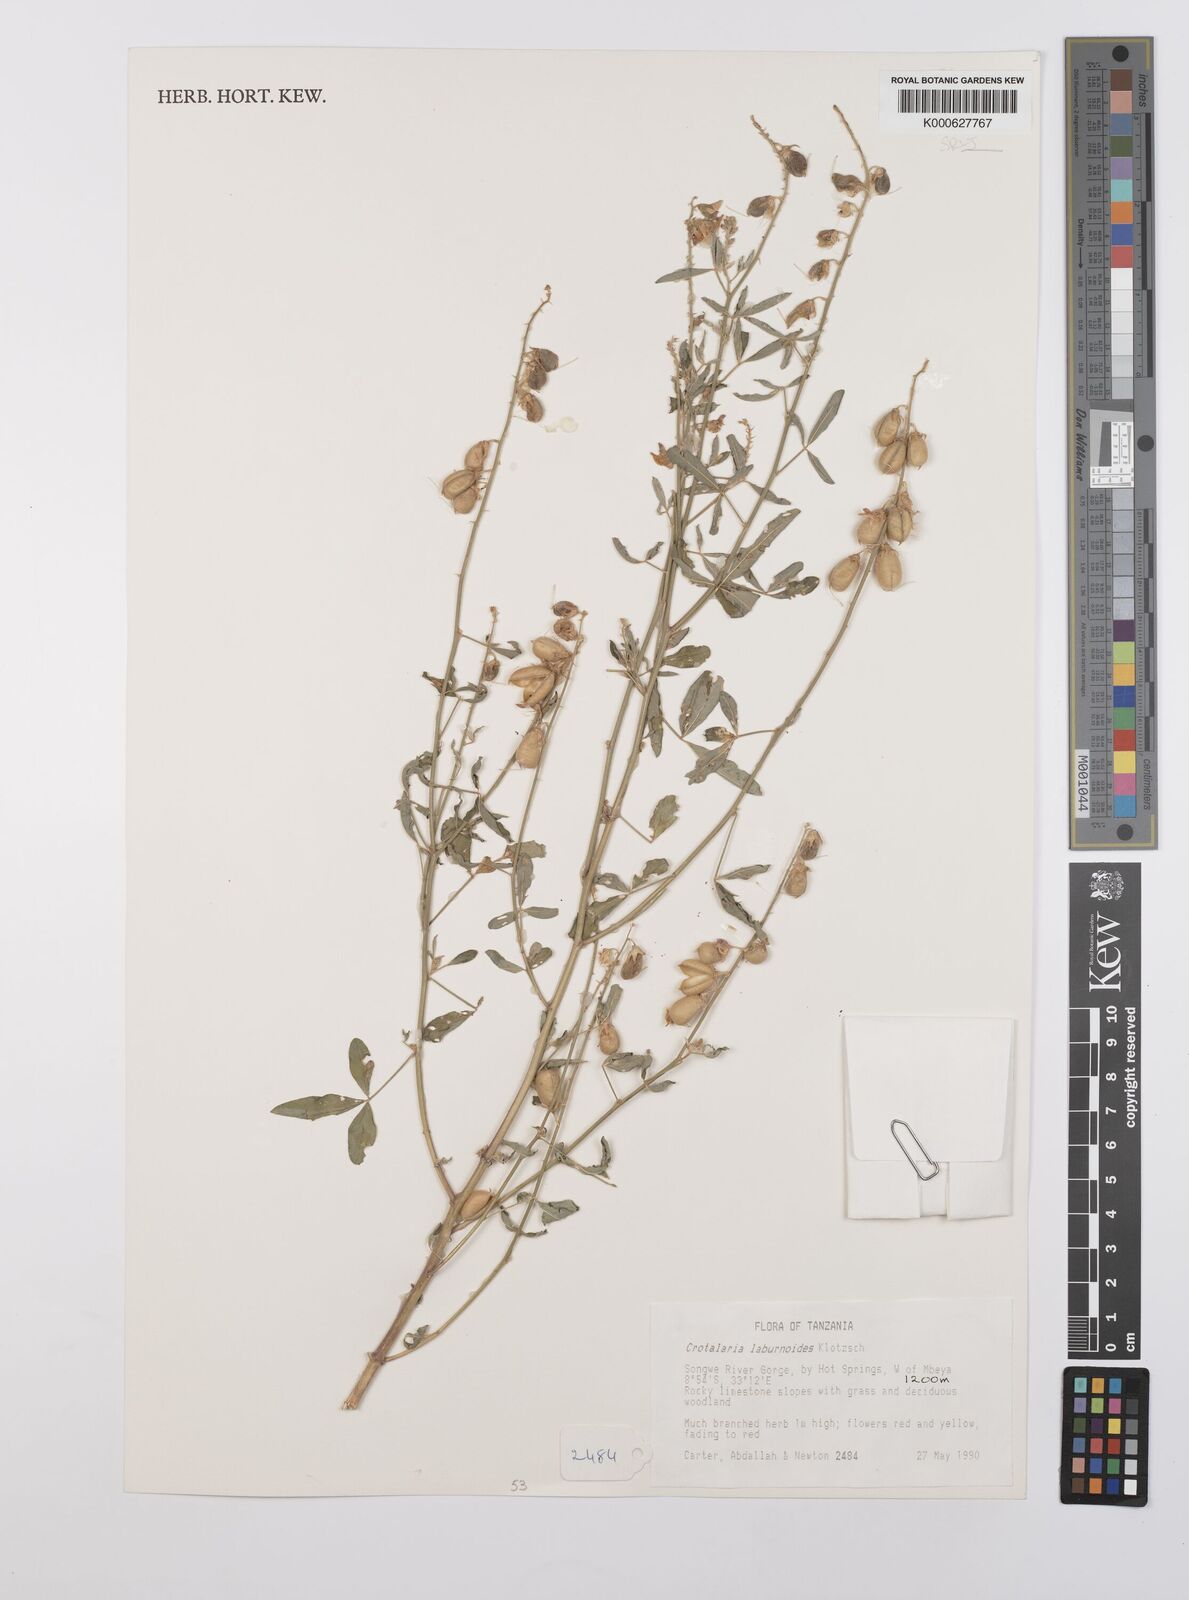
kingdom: Plantae
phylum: Tracheophyta
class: Magnoliopsida
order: Fabales
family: Fabaceae
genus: Crotalaria
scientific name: Crotalaria laburnoides
